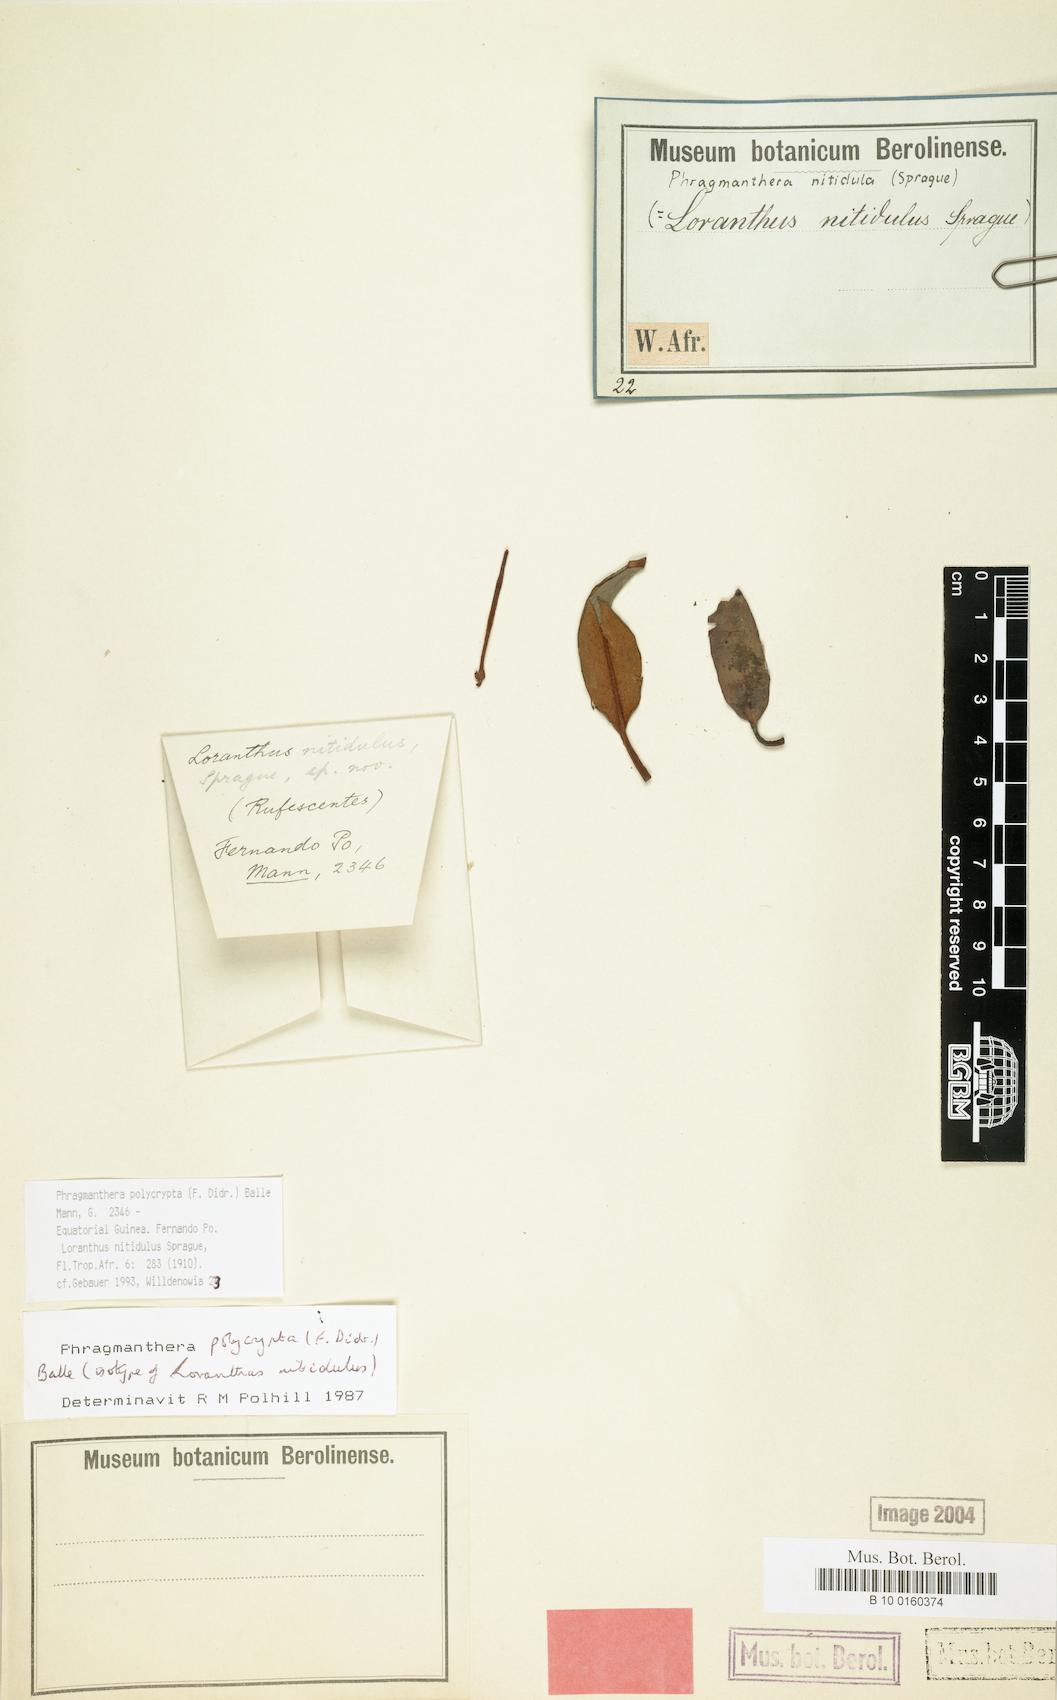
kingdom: Plantae
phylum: Tracheophyta
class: Magnoliopsida
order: Santalales
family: Loranthaceae
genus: Phragmanthera
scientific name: Phragmanthera polycrypta
